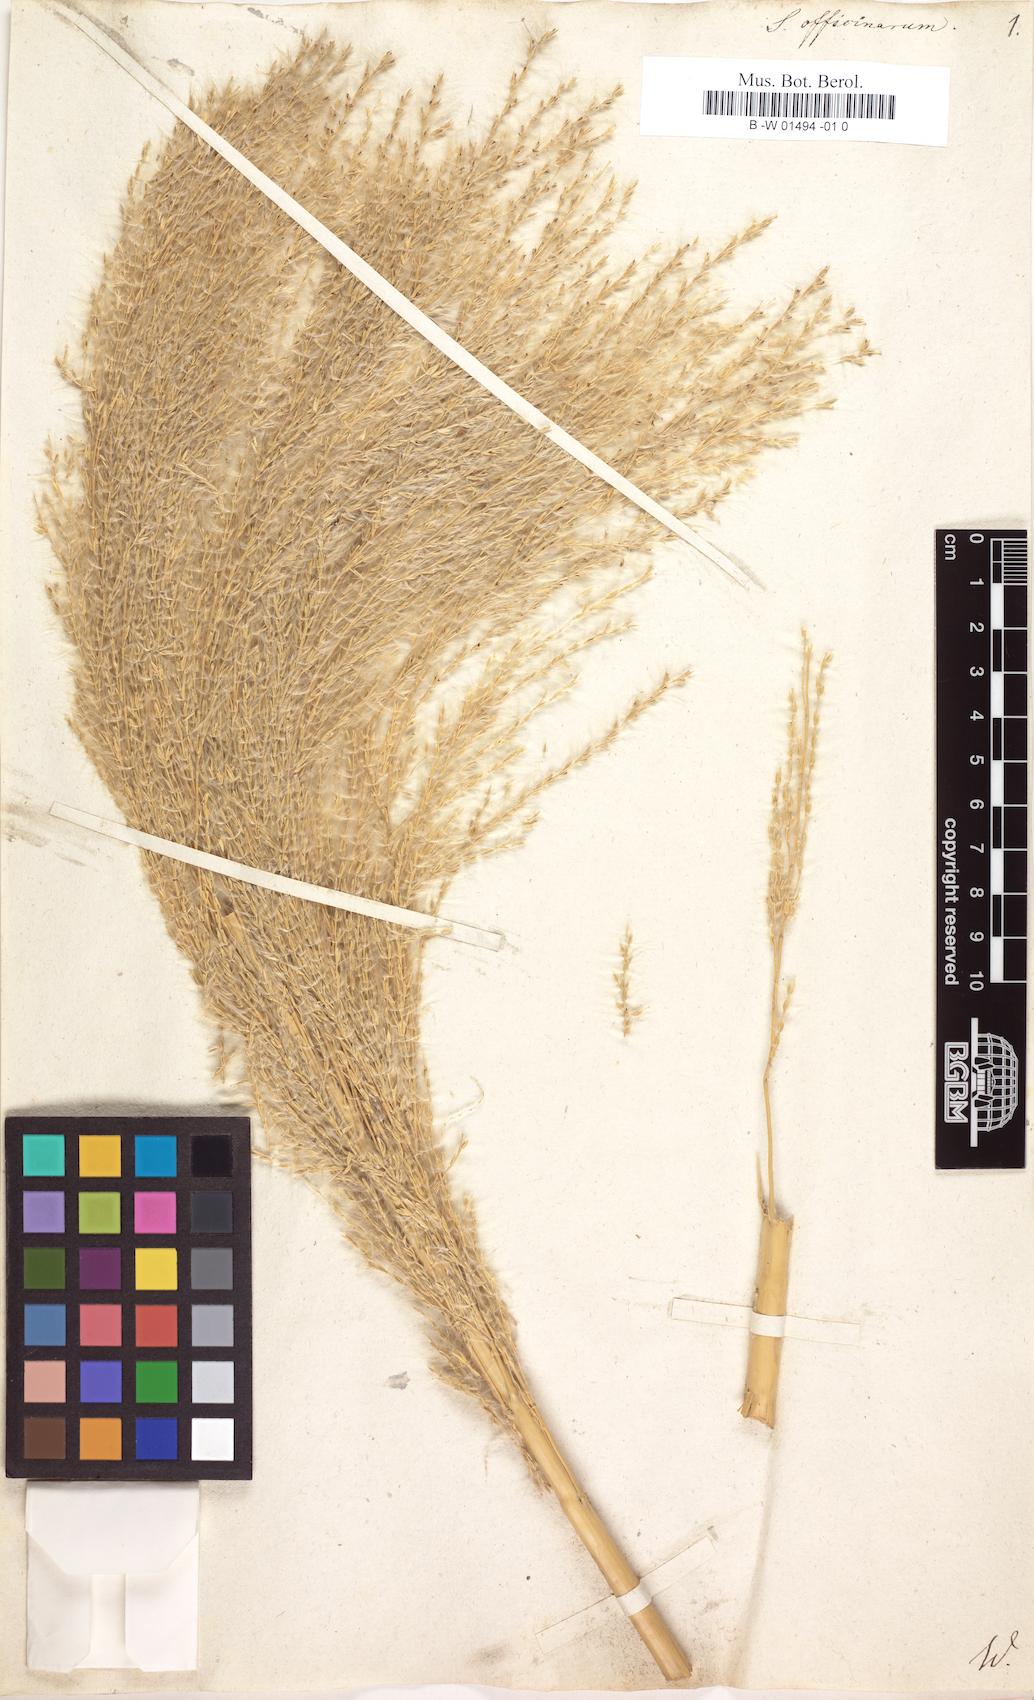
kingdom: Plantae
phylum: Tracheophyta
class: Liliopsida
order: Poales
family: Poaceae
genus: Saccharum
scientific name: Saccharum officinarum
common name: Sugarcane
